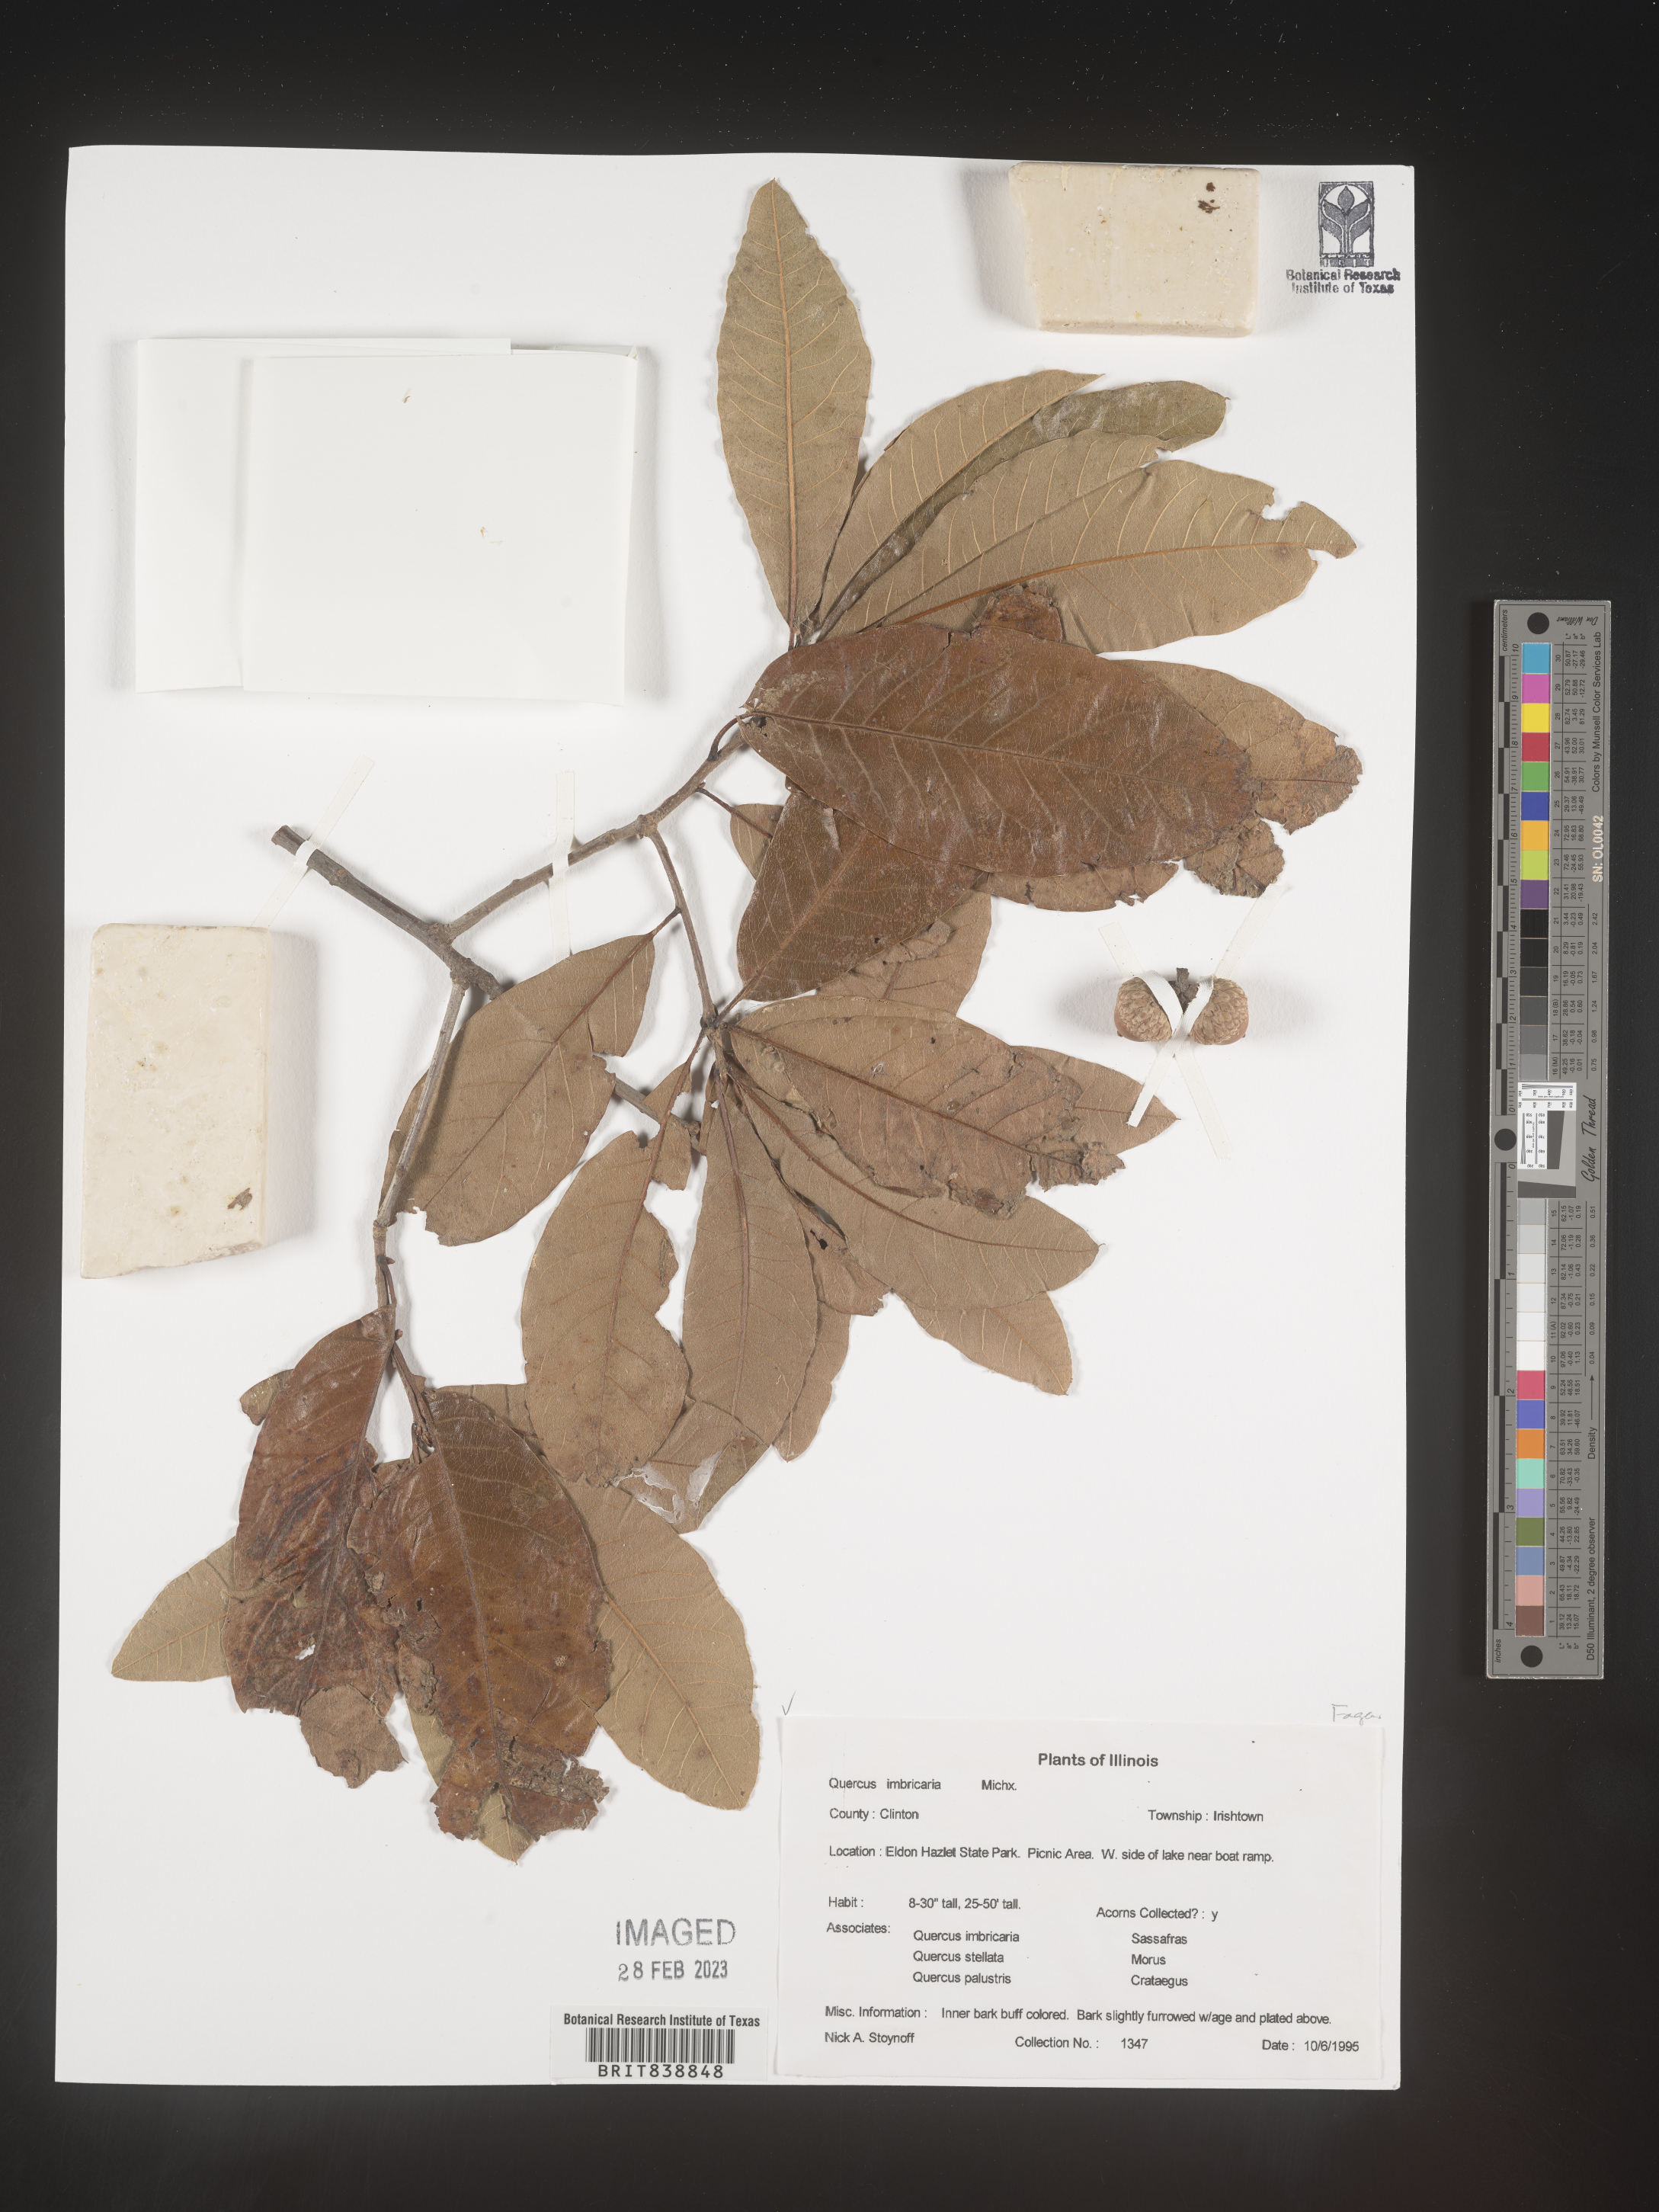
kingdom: Plantae
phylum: Tracheophyta
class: Magnoliopsida
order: Fagales
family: Fagaceae
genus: Quercus
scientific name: Quercus imbricaria
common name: Shingle oak
